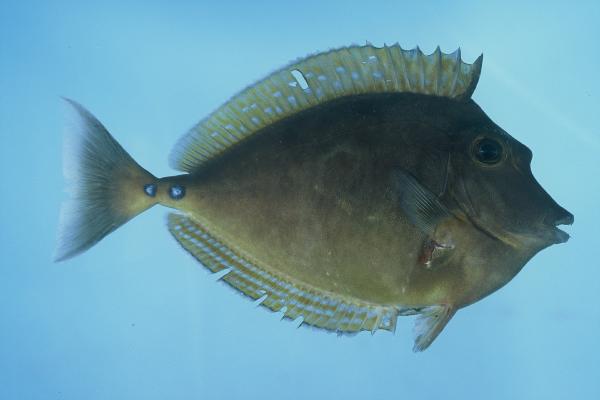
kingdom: Animalia
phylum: Chordata
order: Perciformes
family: Acanthuridae
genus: Naso
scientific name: Naso unicornis
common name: Bluespine unicornfish
